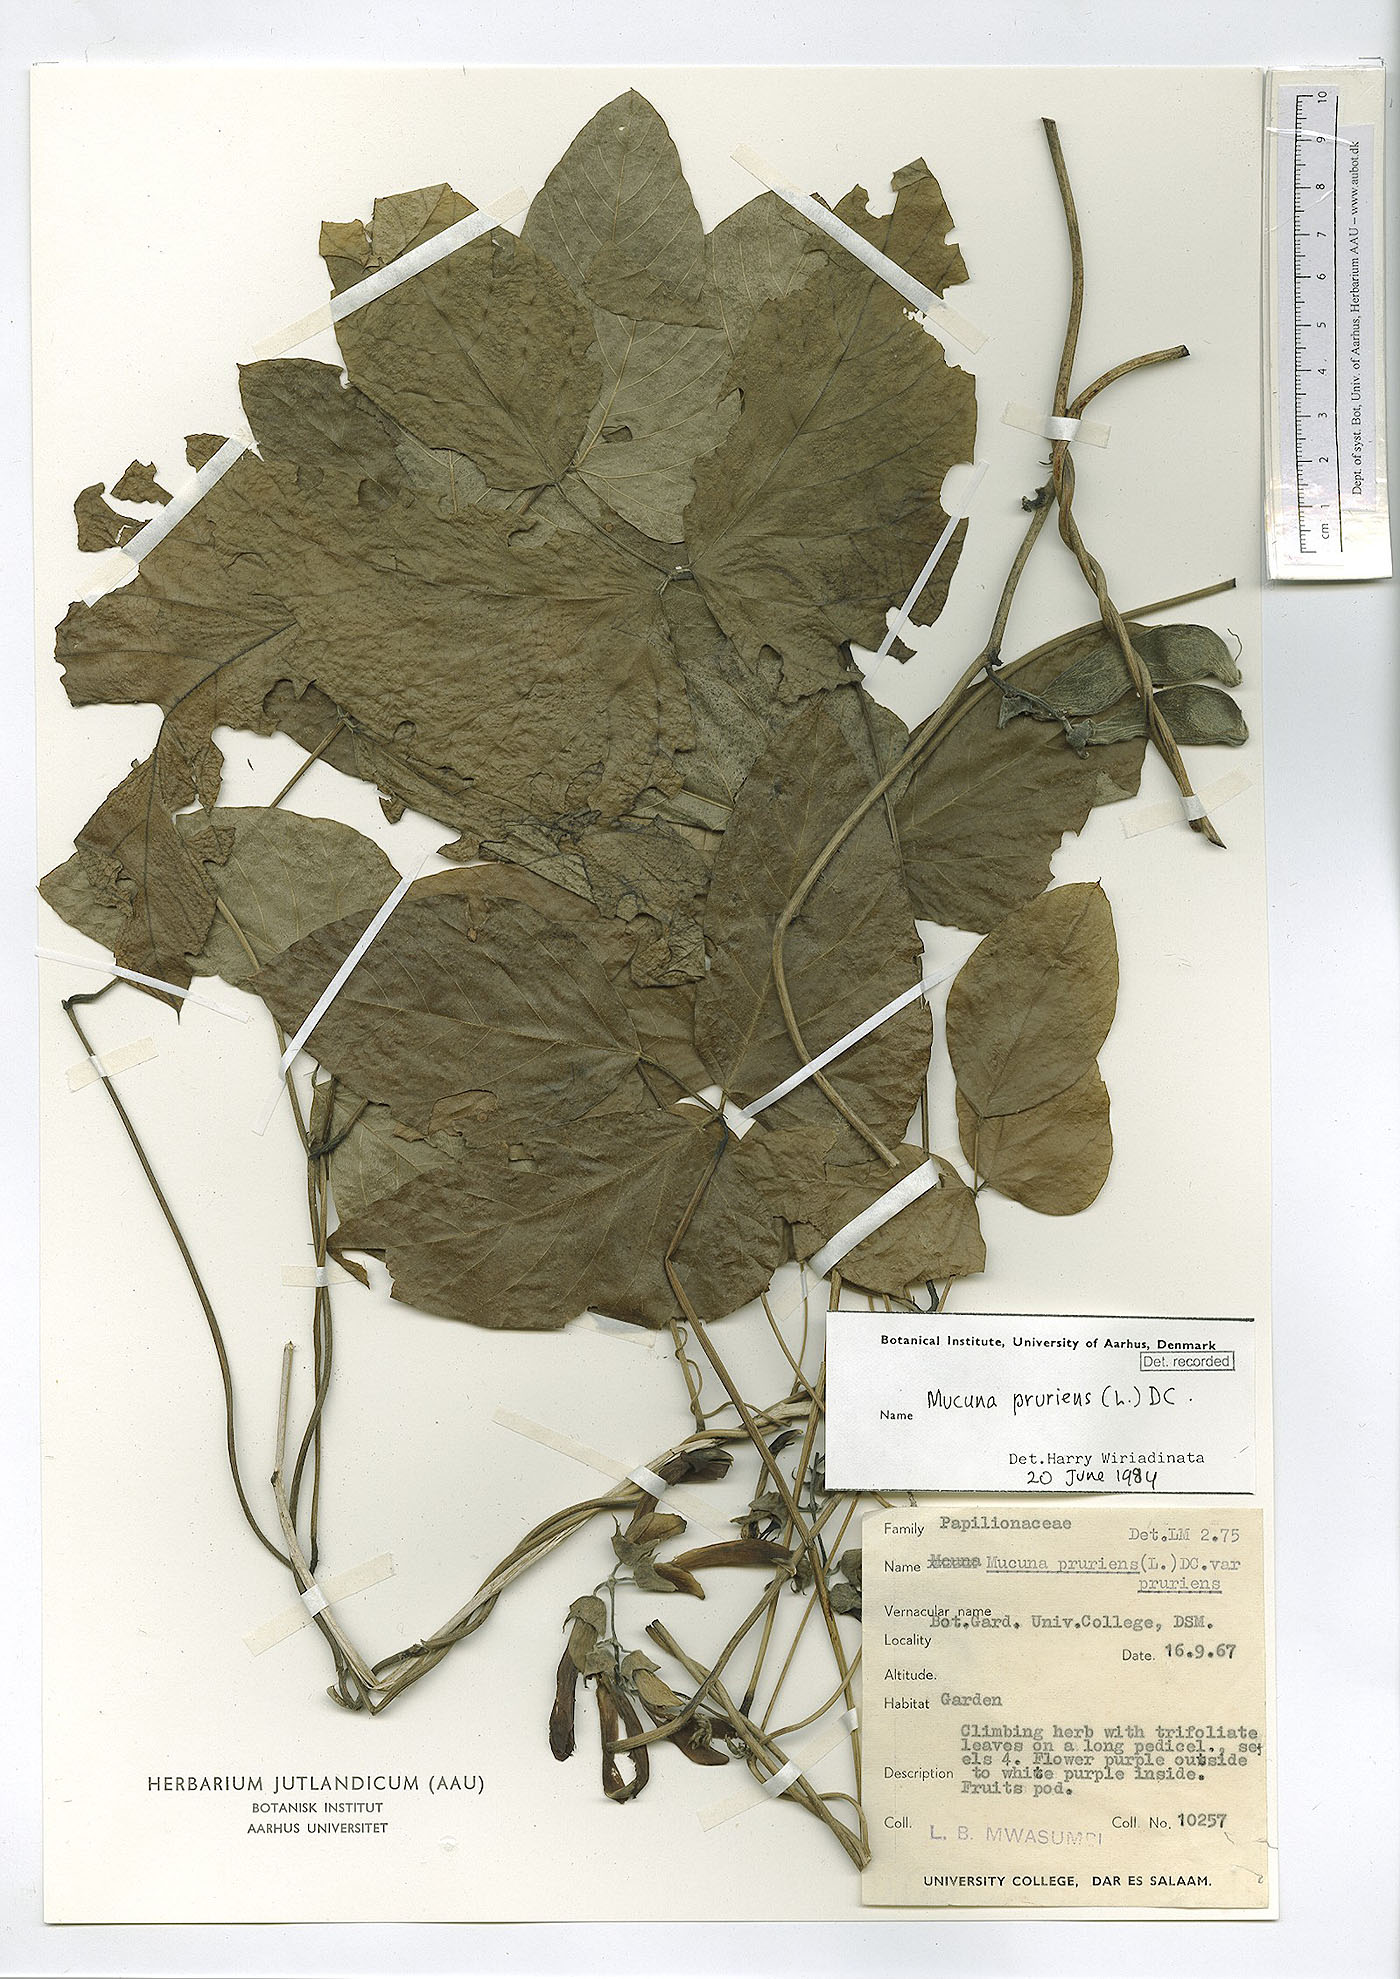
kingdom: Plantae
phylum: Tracheophyta
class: Magnoliopsida
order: Fabales
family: Fabaceae
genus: Mucuna
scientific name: Mucuna pruriens
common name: Cow-itch
